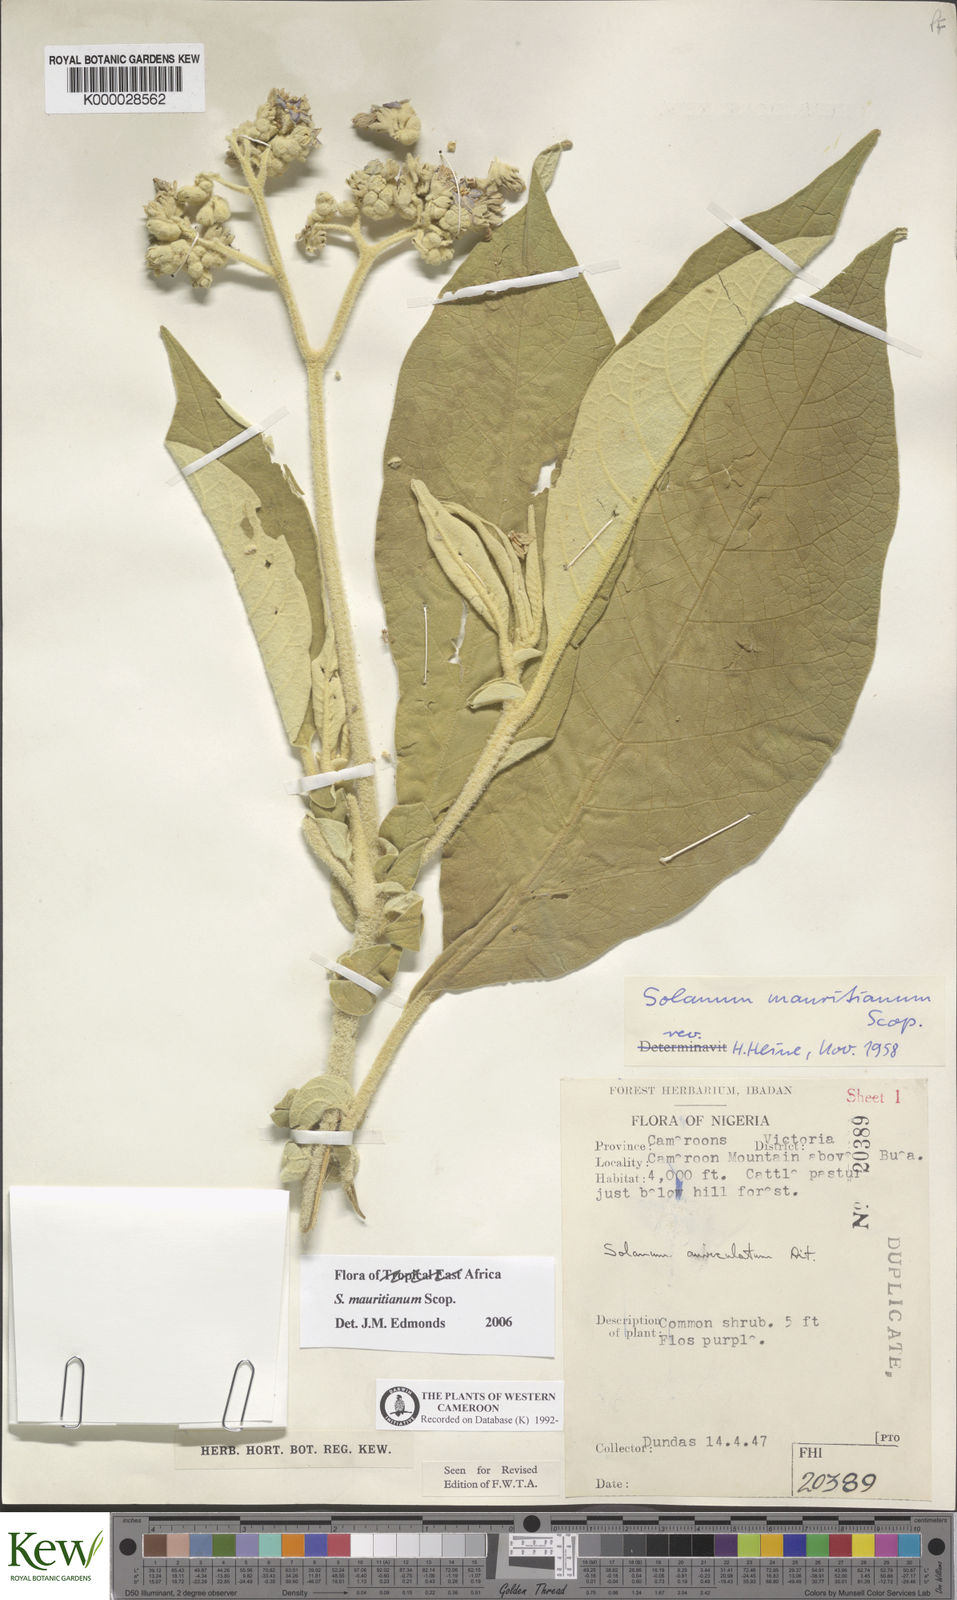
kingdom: Plantae
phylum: Tracheophyta
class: Magnoliopsida
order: Solanales
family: Solanaceae
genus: Solanum
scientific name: Solanum mauritianum
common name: Earleaf nightshade
